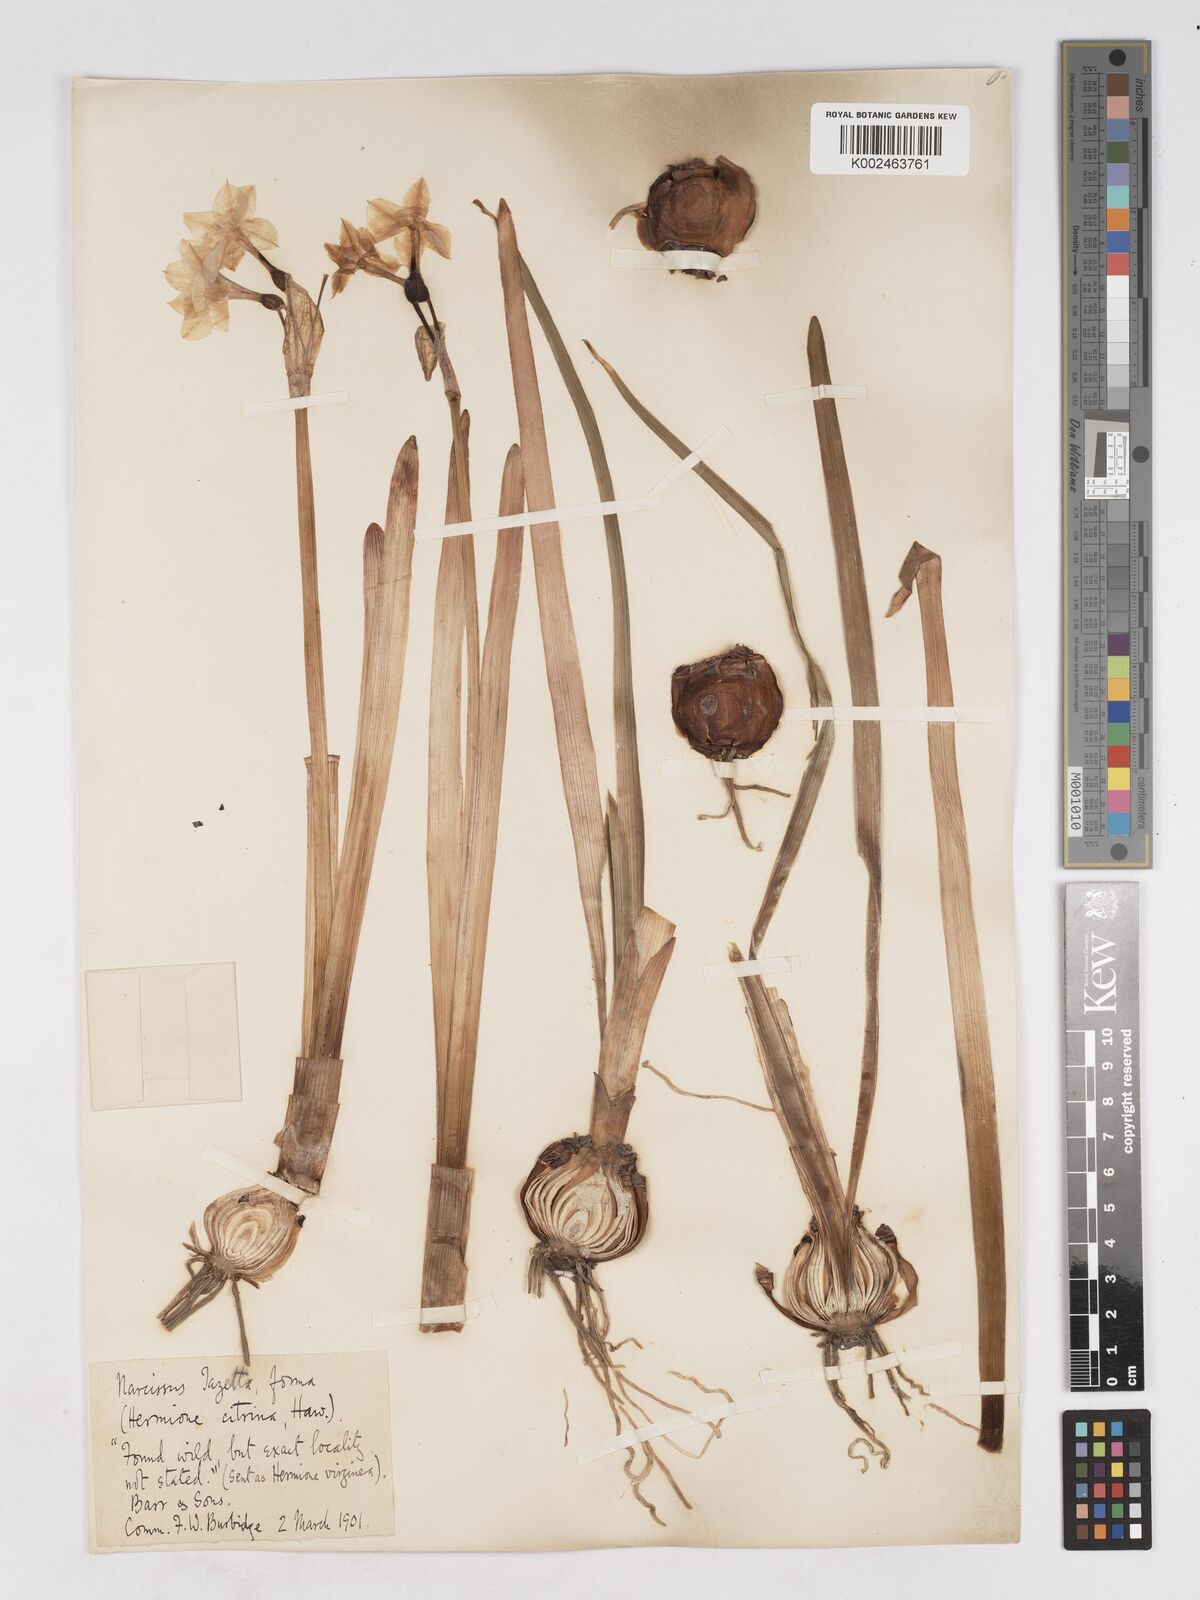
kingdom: Plantae
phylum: Tracheophyta
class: Liliopsida
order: Asparagales
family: Amaryllidaceae
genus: Narcissus
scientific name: Narcissus
